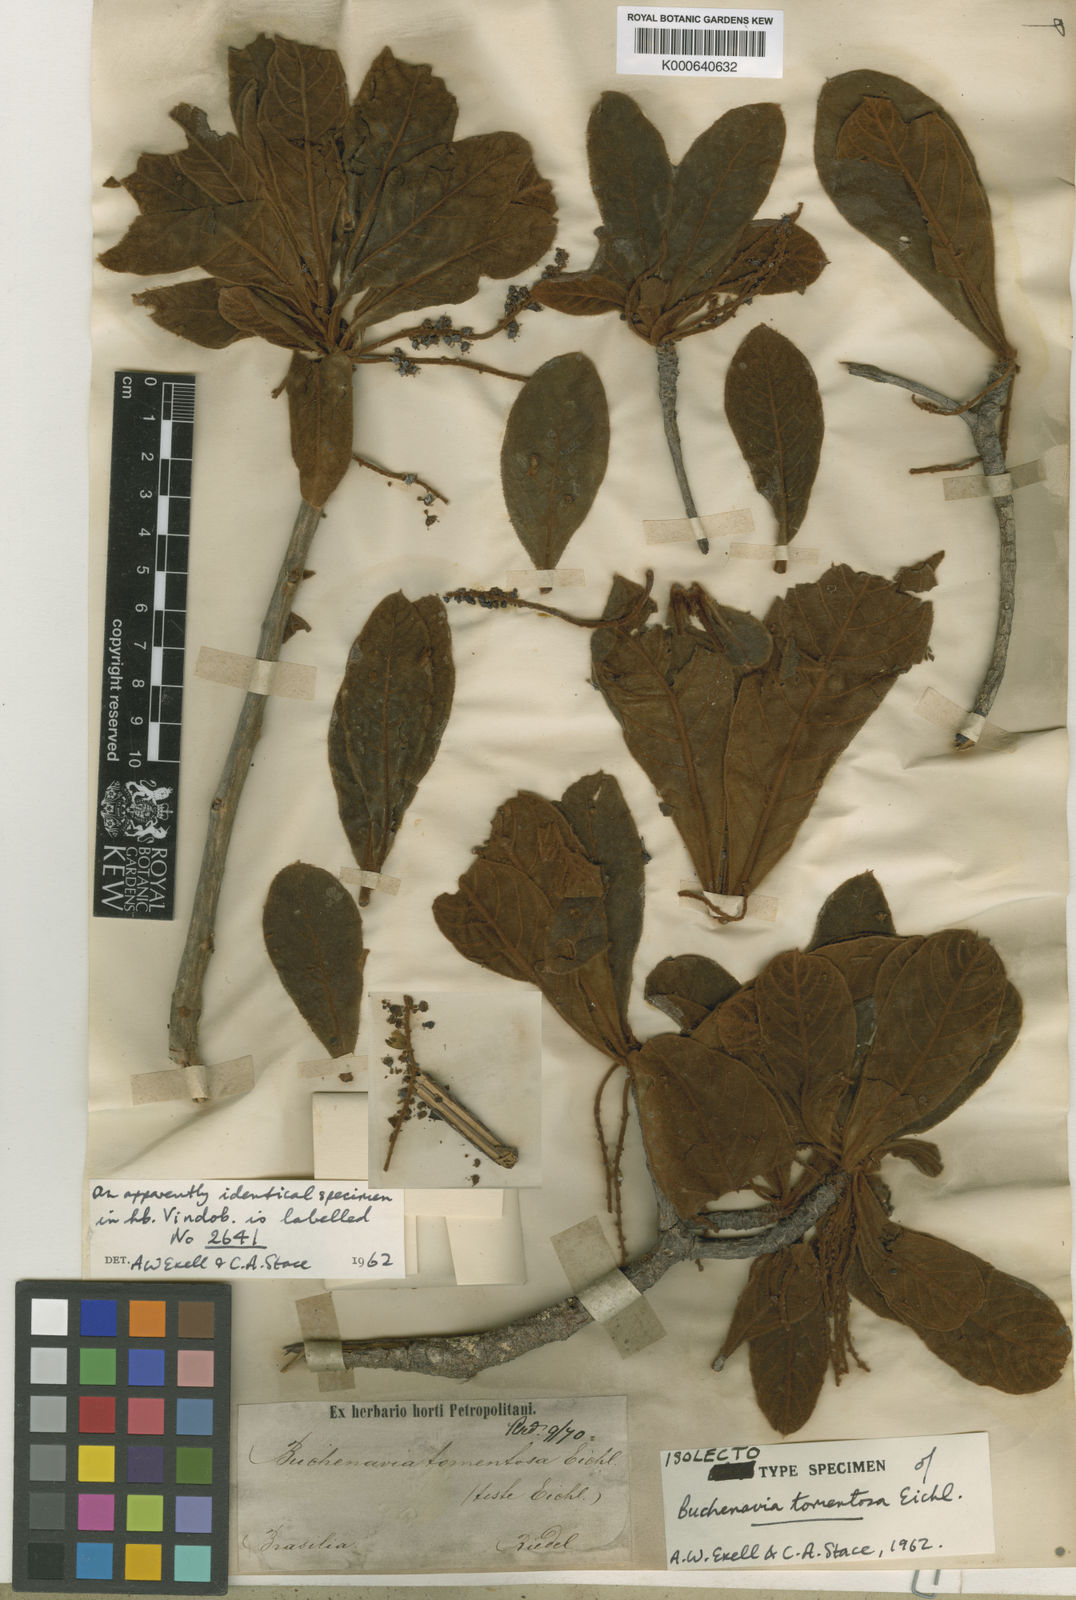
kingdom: Plantae
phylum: Tracheophyta
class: Magnoliopsida
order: Myrtales
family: Combretaceae
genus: Terminalia
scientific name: Terminalia corrugata
